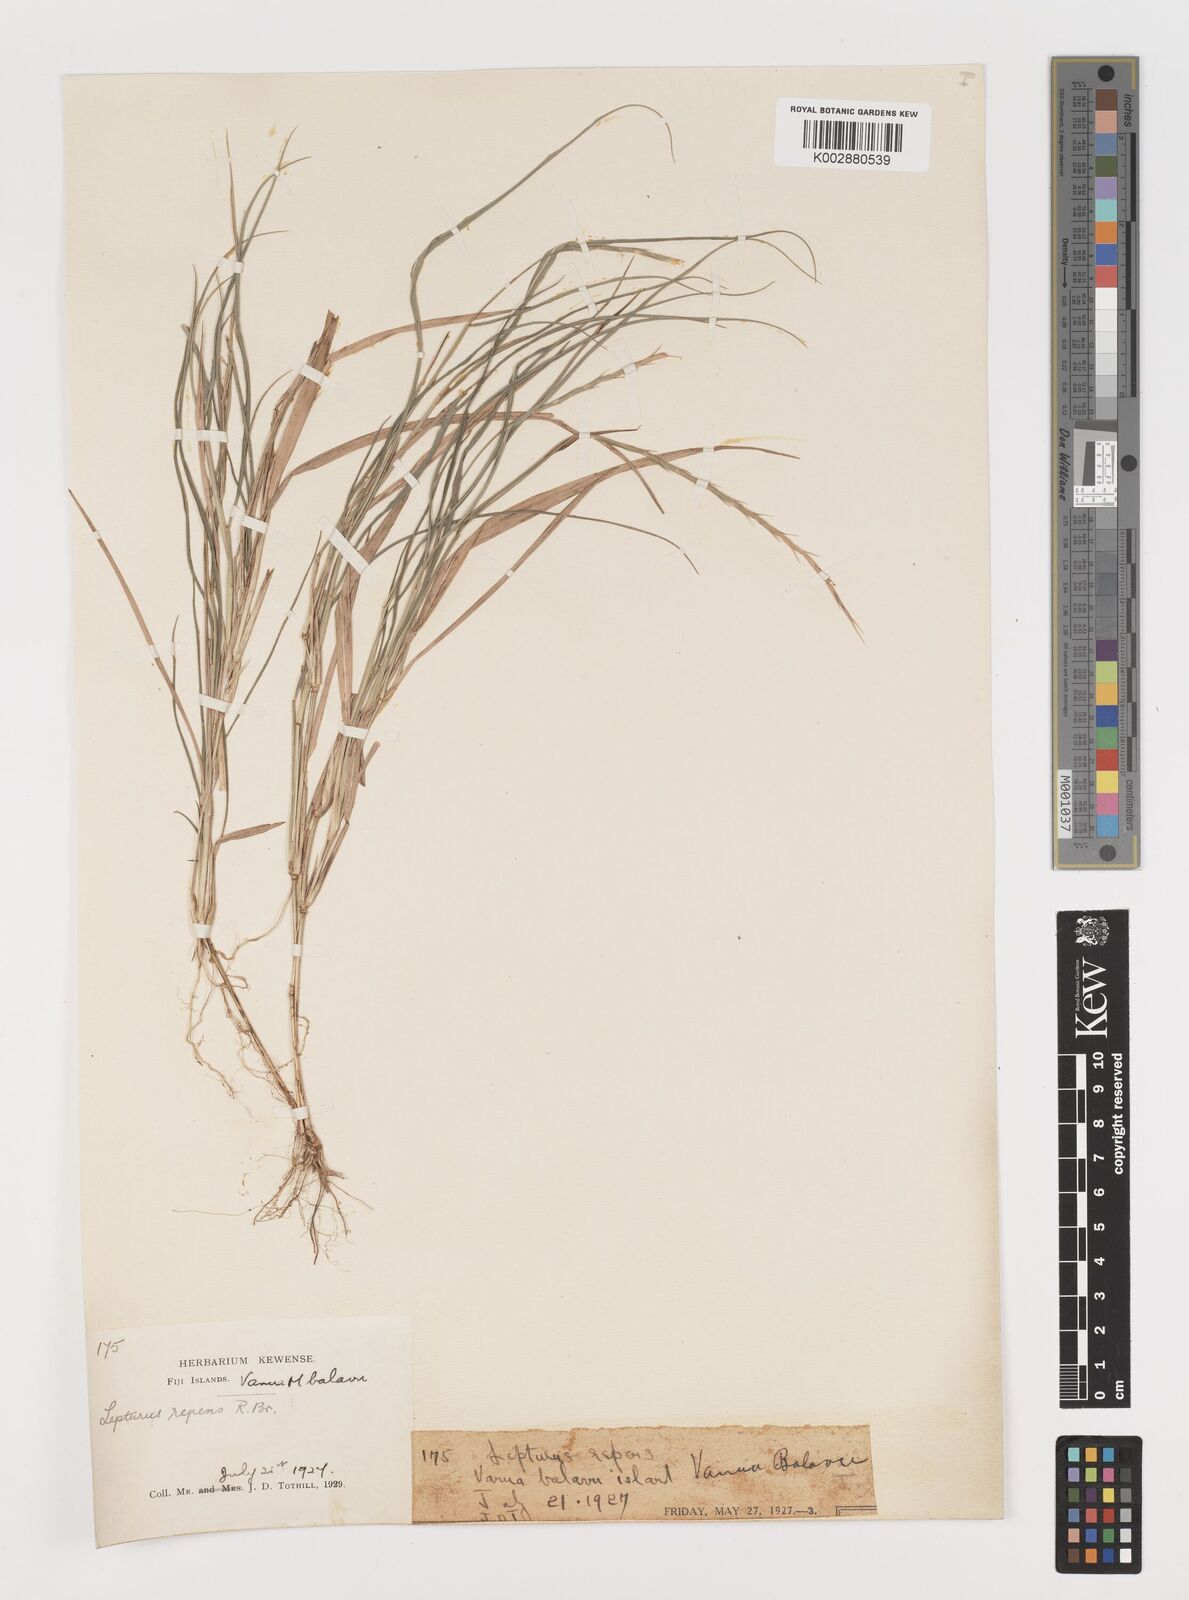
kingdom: Plantae
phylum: Tracheophyta
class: Liliopsida
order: Poales
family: Poaceae
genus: Lepturus
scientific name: Lepturus repens
